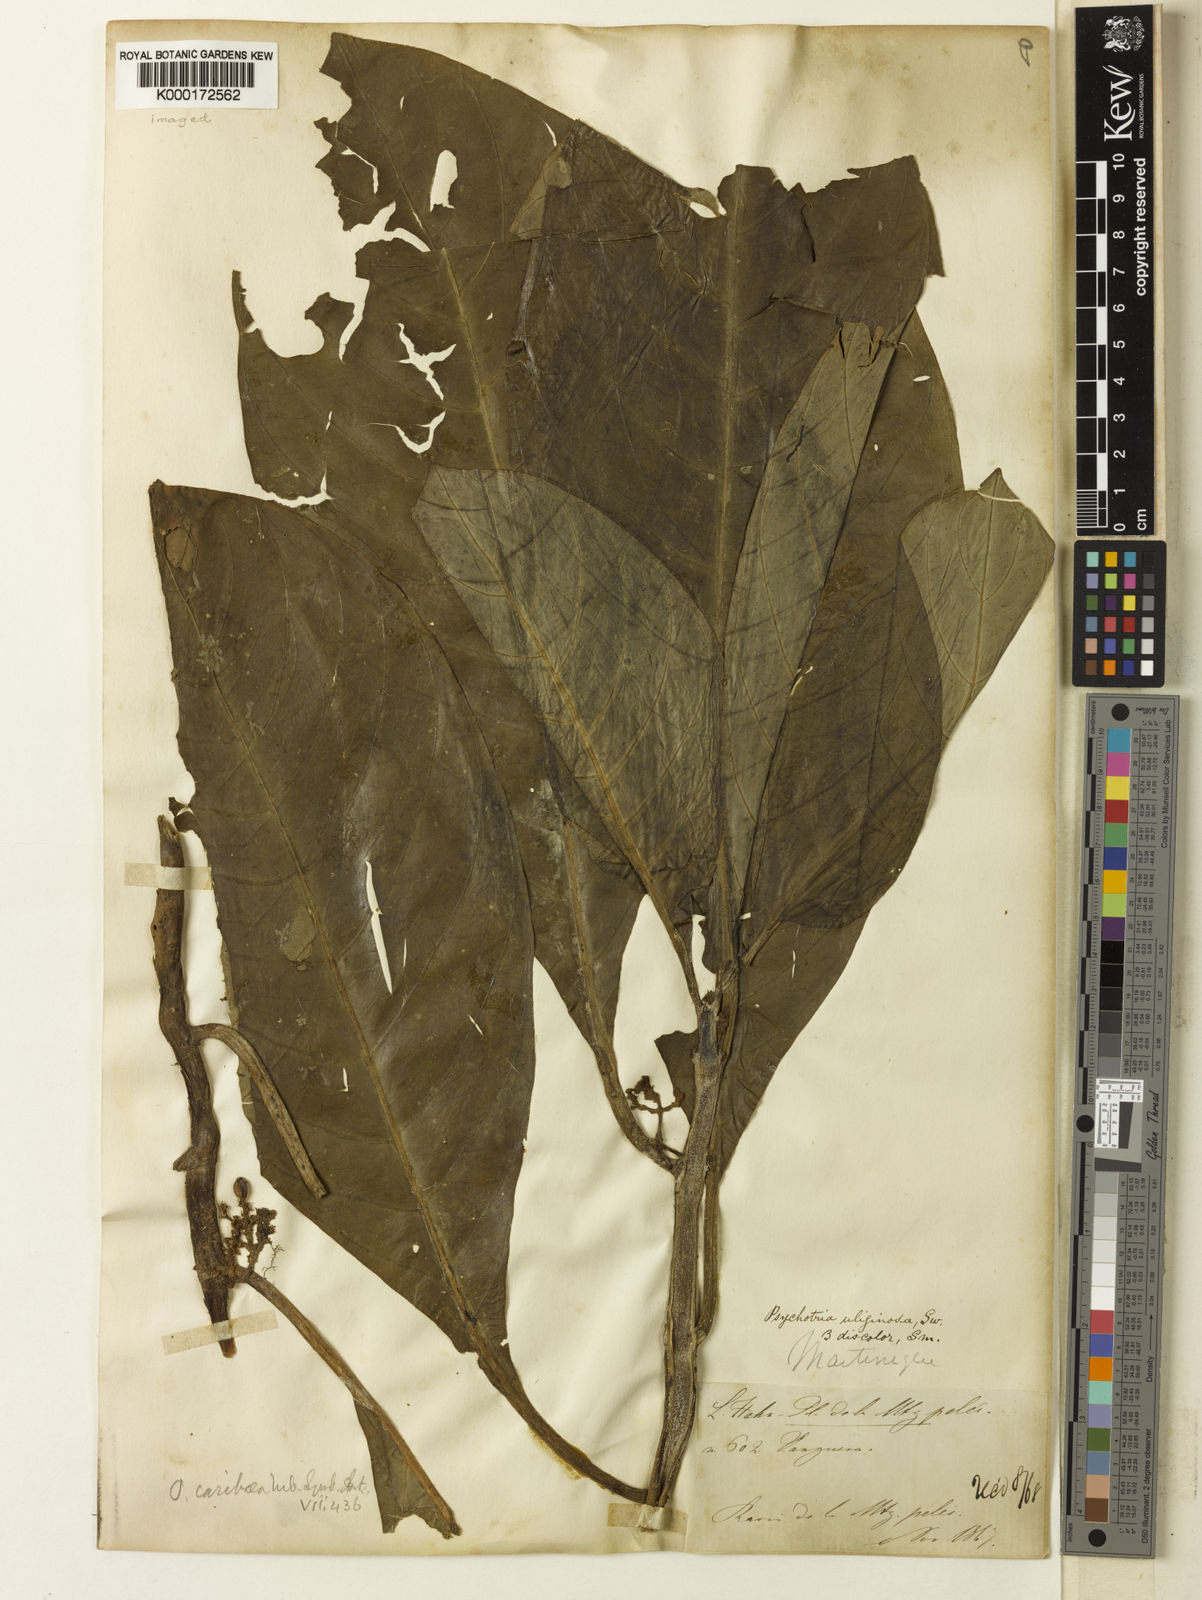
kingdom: Plantae
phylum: Tracheophyta
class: Magnoliopsida
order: Gentianales
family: Rubiaceae
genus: Notopleura
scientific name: Notopleura discolor
